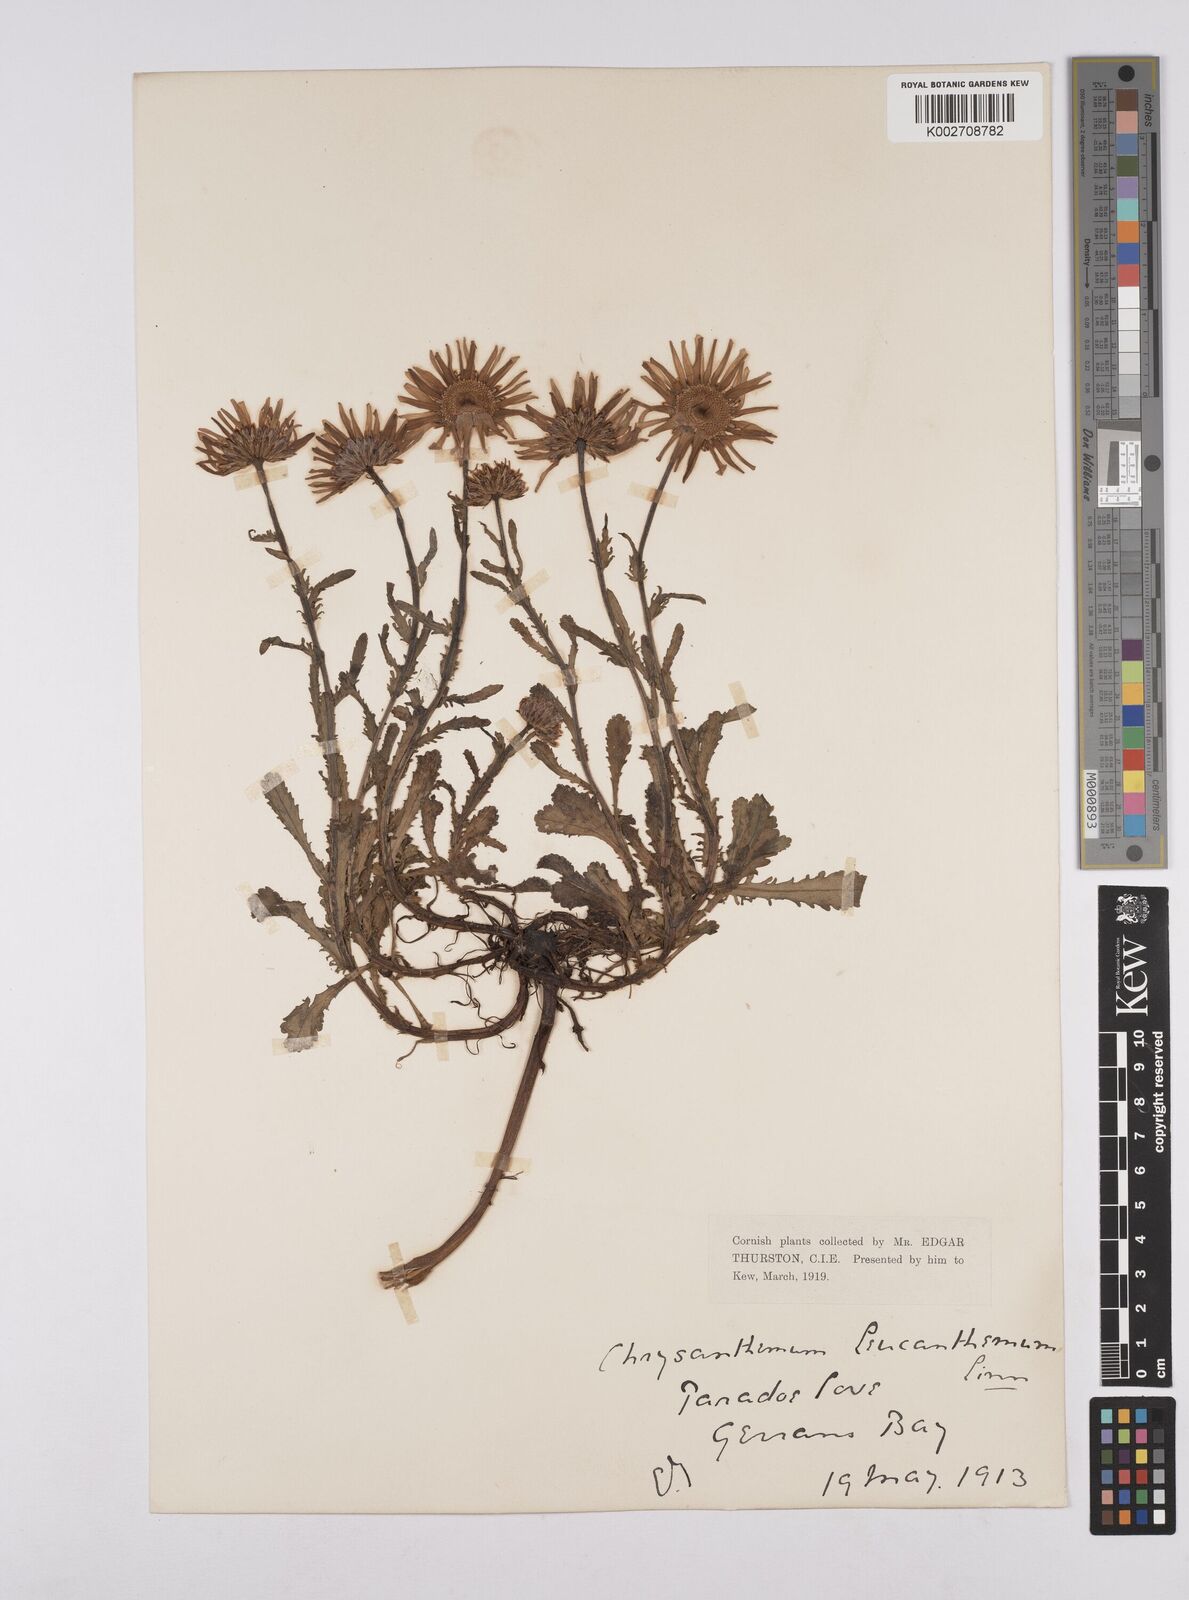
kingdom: Plantae
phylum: Tracheophyta
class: Magnoliopsida
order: Asterales
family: Asteraceae
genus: Leucanthemum
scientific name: Leucanthemum vulgare
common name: Oxeye daisy
